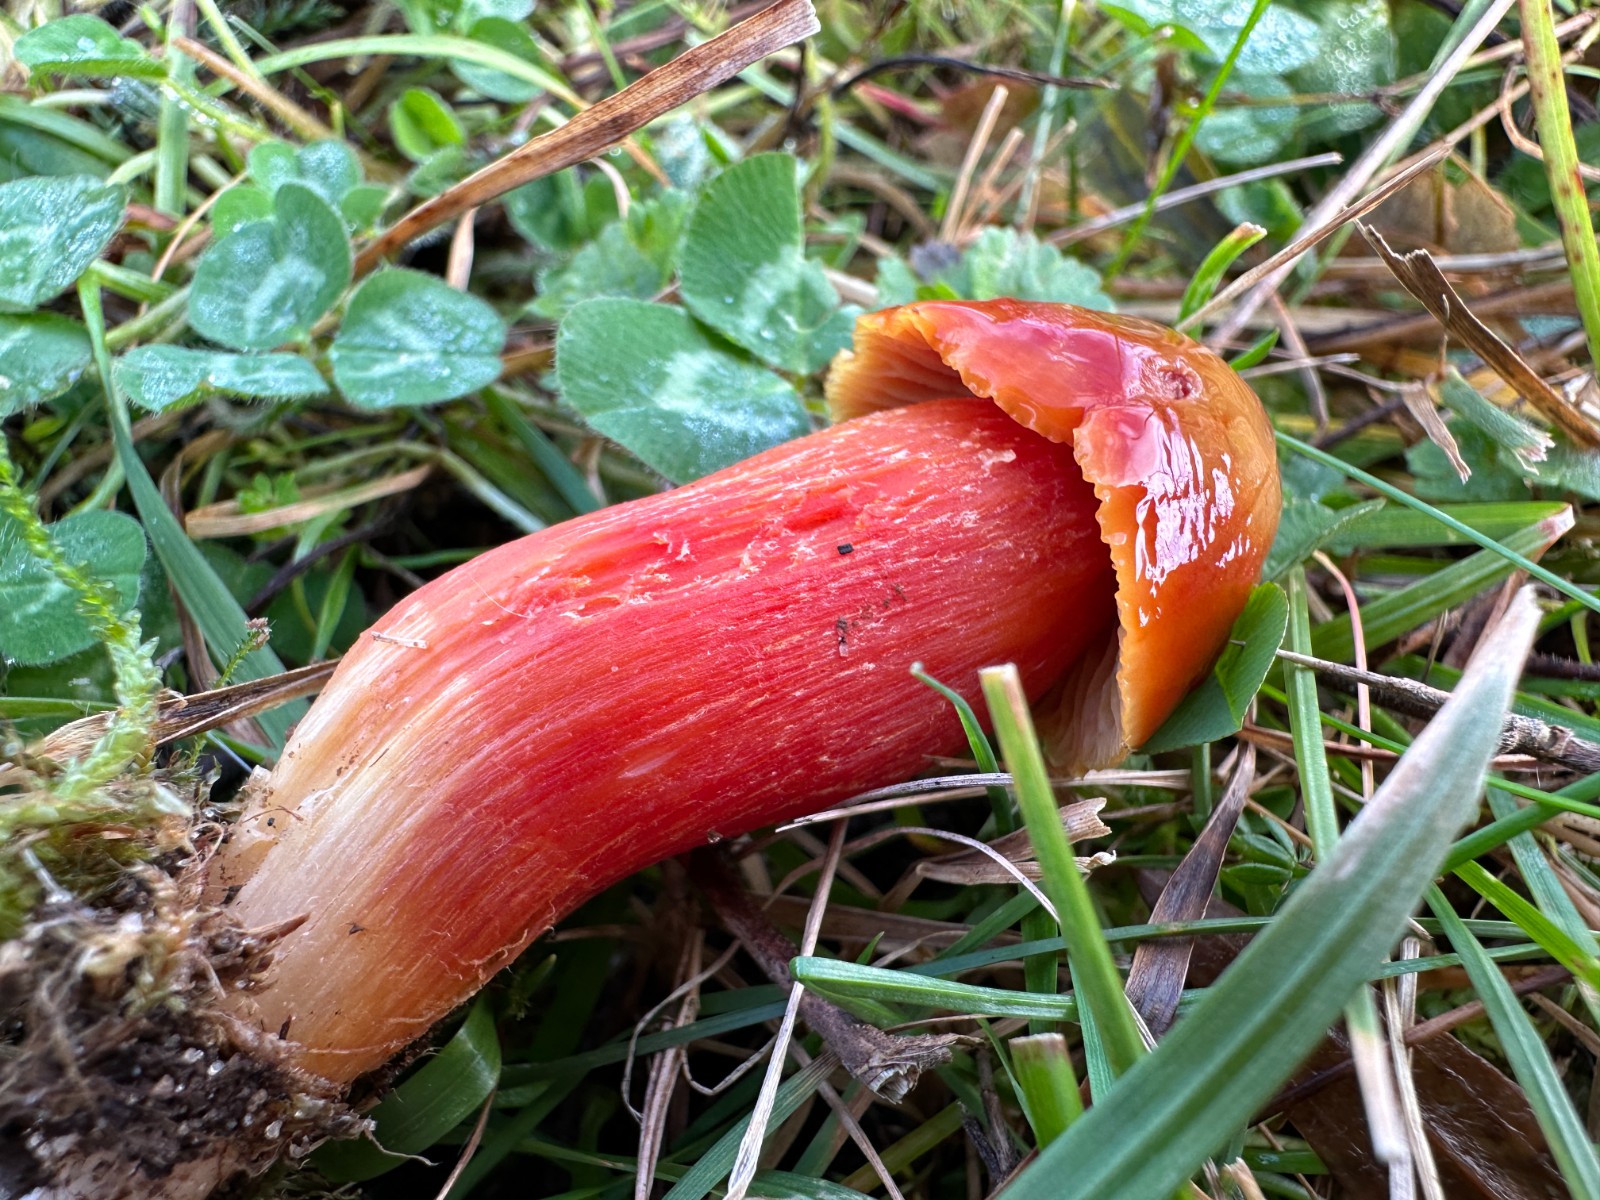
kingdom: Fungi
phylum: Basidiomycota
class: Agaricomycetes
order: Agaricales
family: Hygrophoraceae
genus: Hygrocybe
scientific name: Hygrocybe punicea
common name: skarlagen-vokshat
